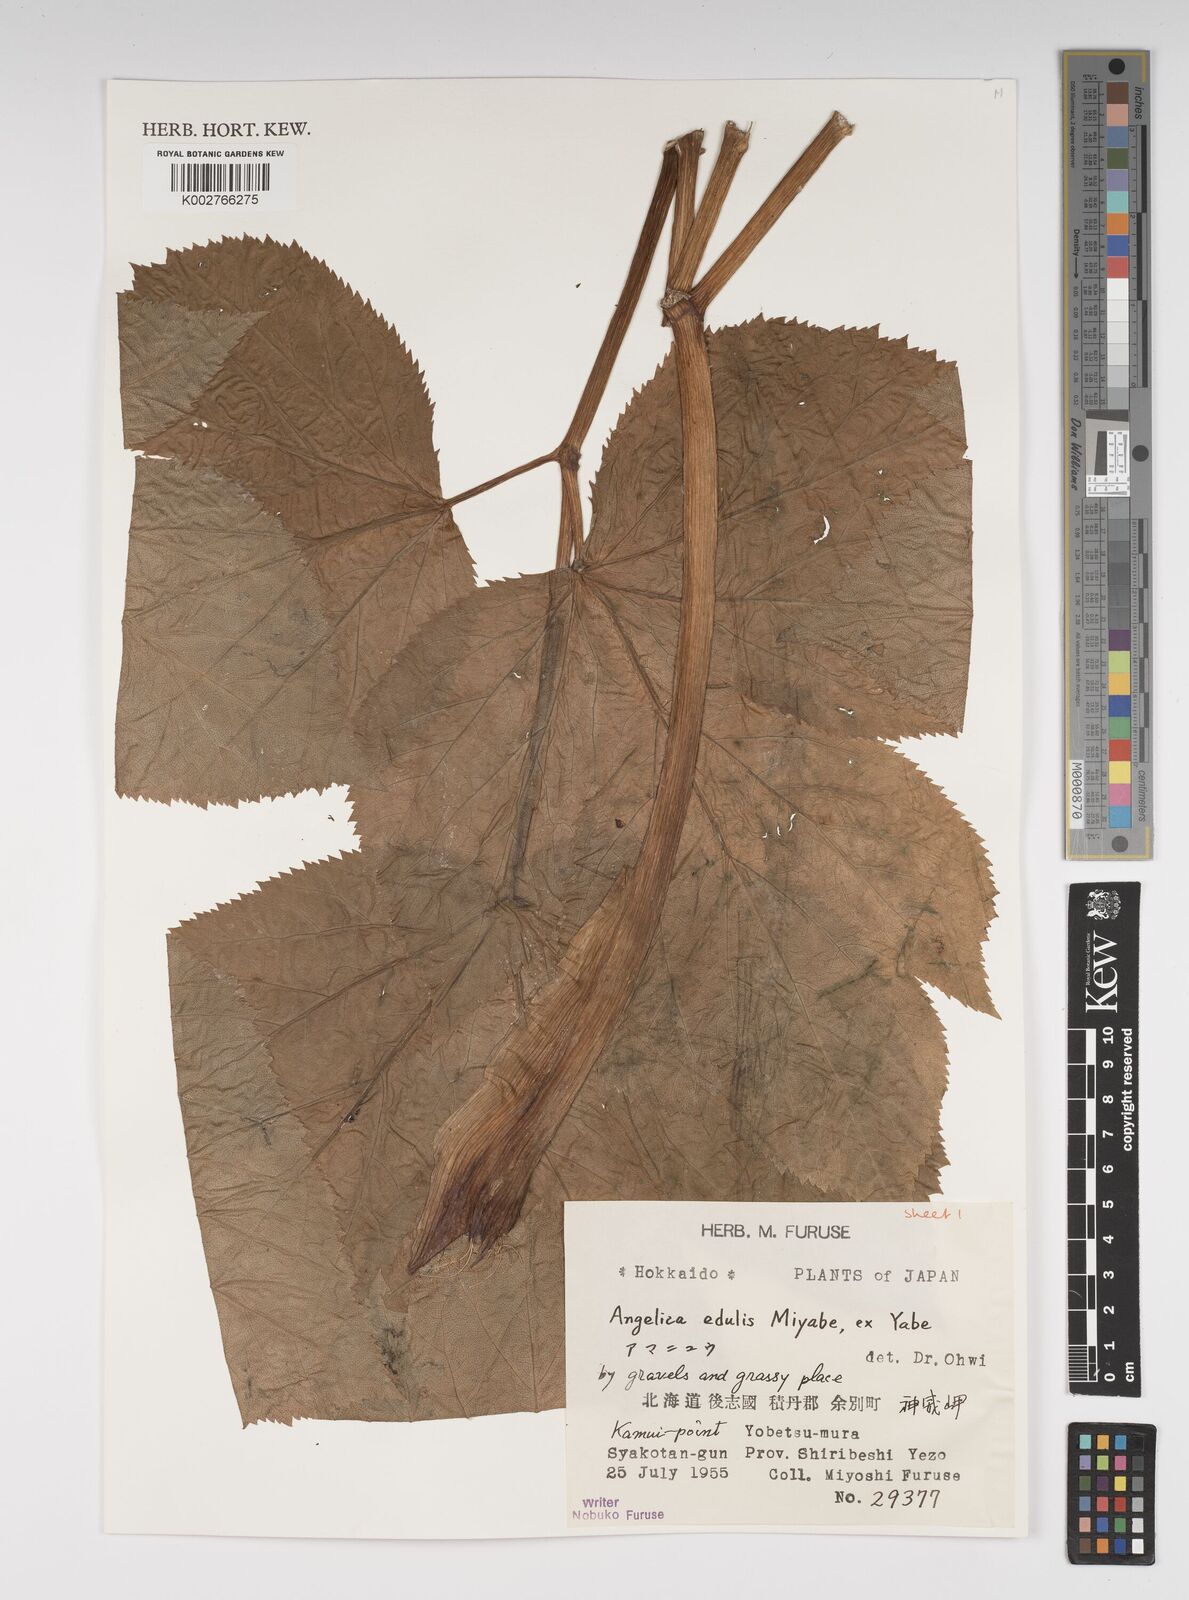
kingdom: Plantae
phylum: Tracheophyta
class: Magnoliopsida
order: Apiales
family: Apiaceae
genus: Angelica
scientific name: Angelica edulis
